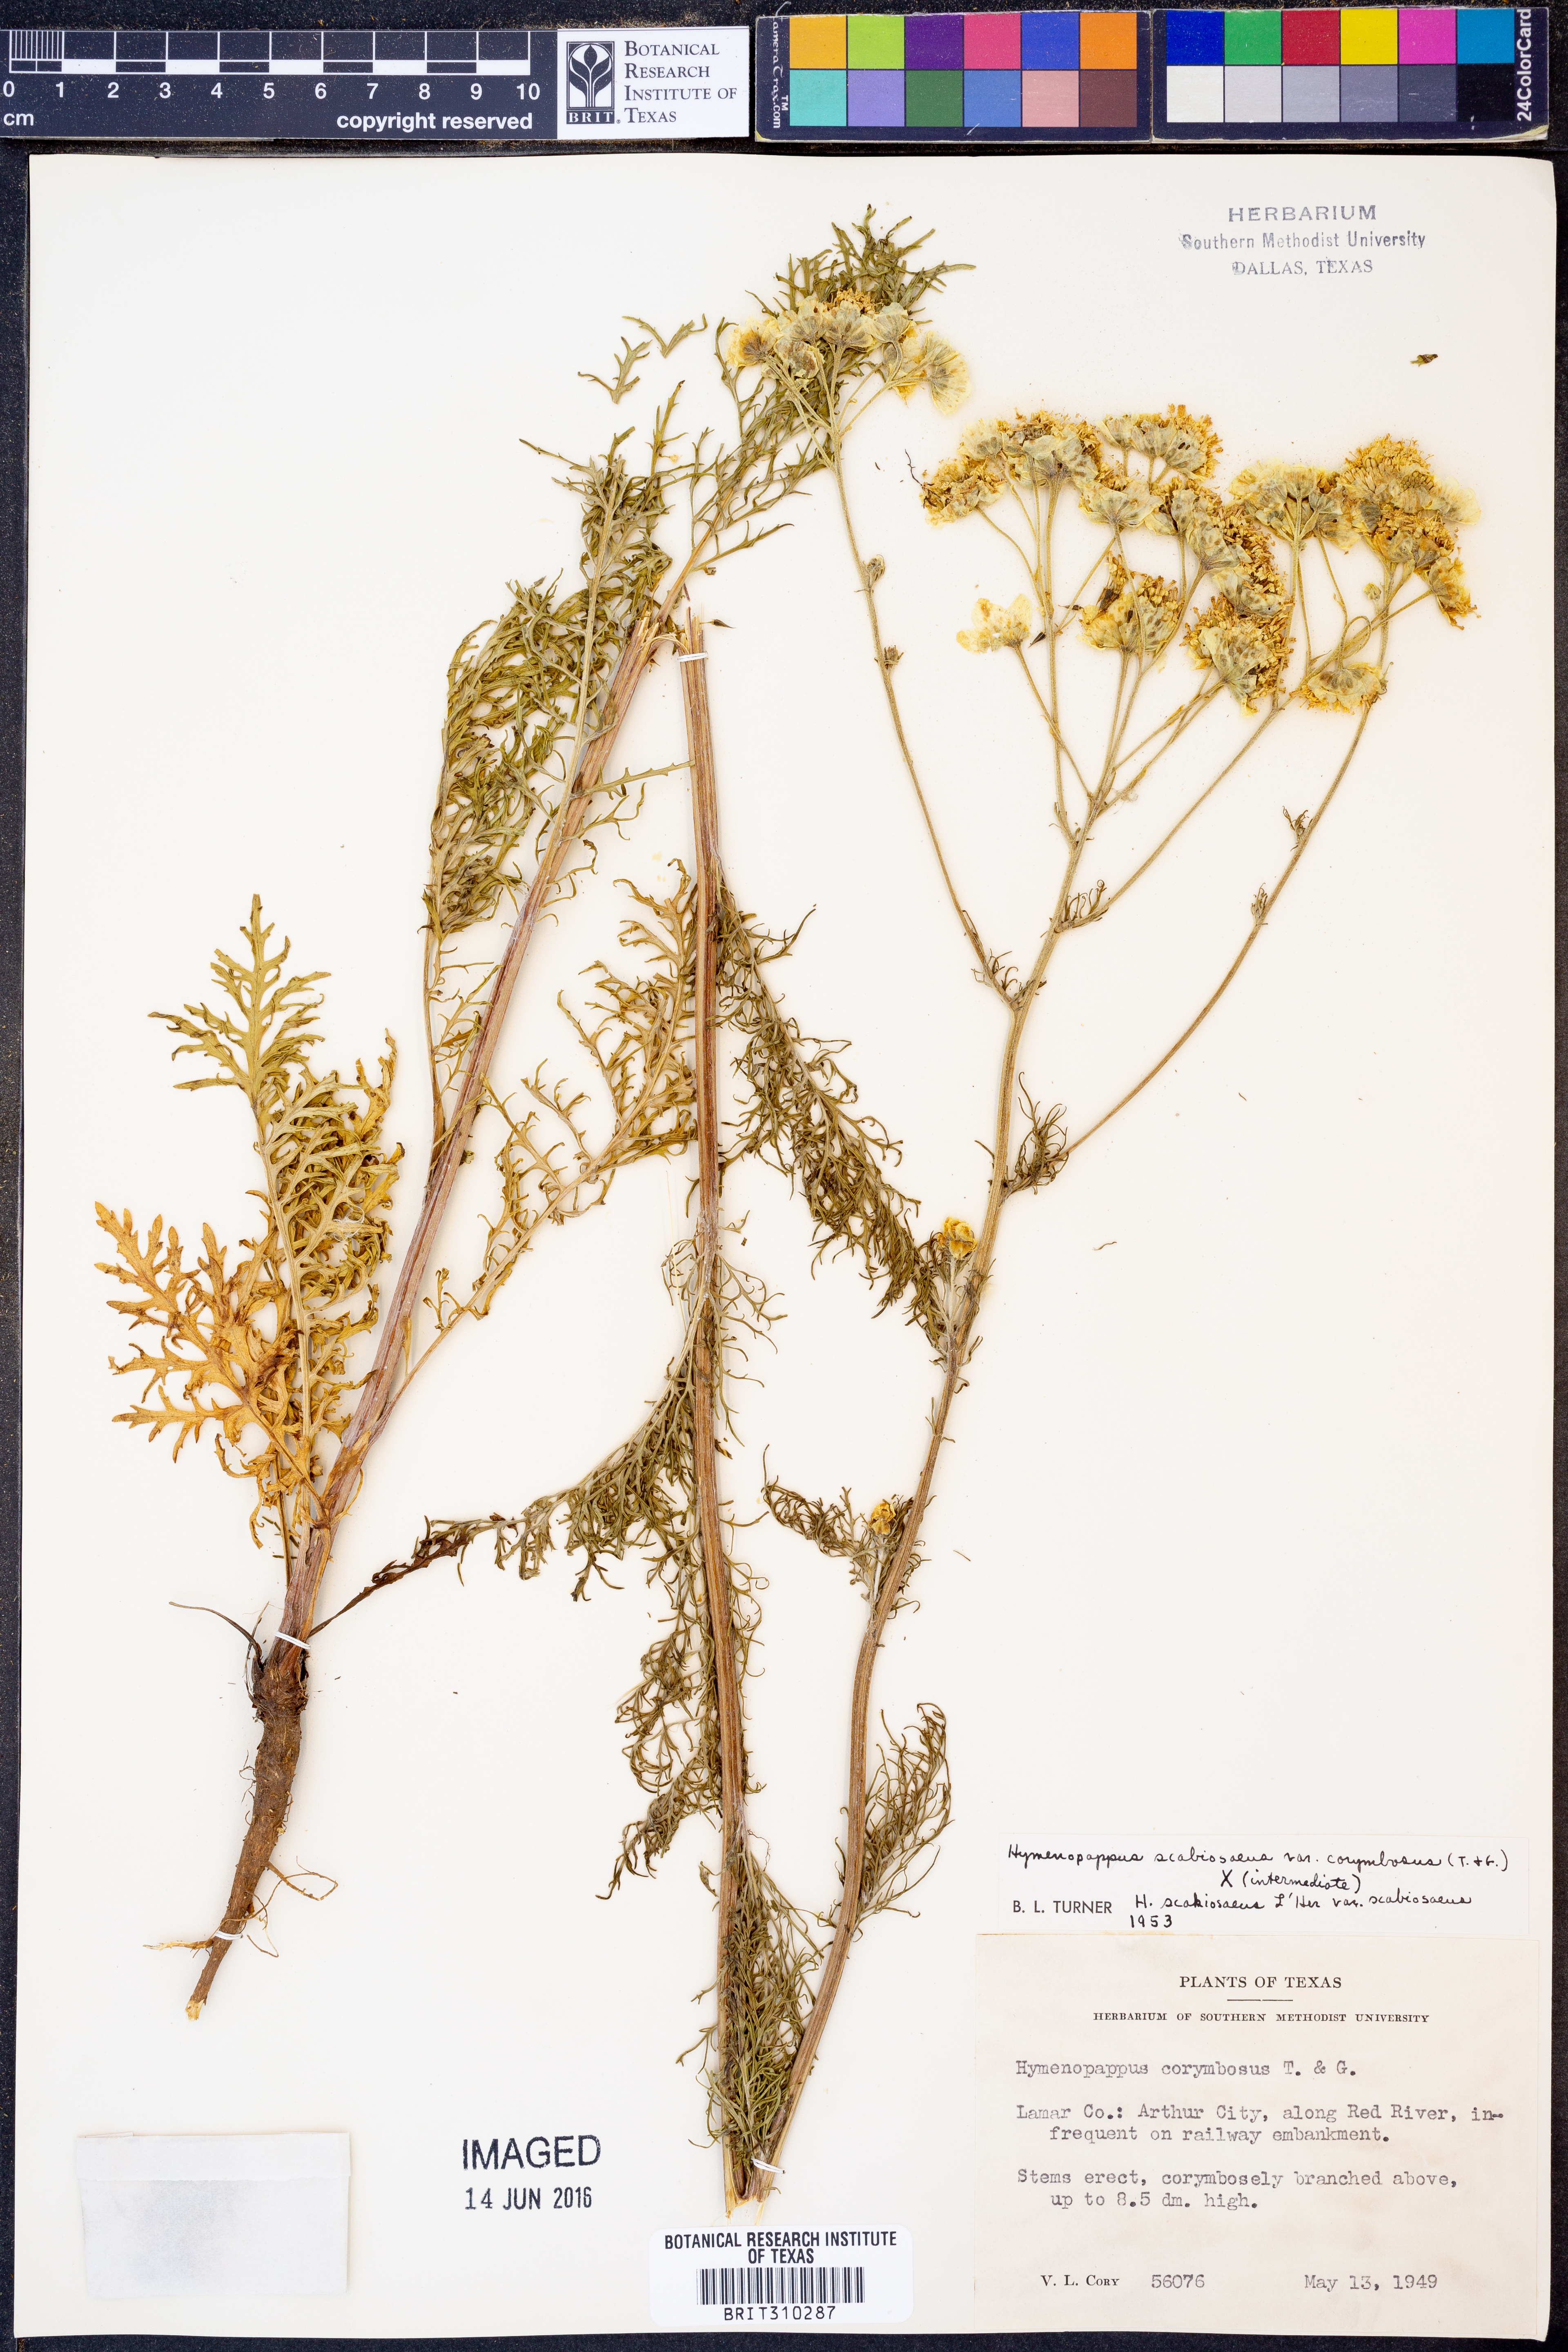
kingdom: Plantae
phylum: Tracheophyta
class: Magnoliopsida
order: Asterales
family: Asteraceae
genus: Hymenopappus
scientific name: Hymenopappus scabiosaeus
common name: Carolina woollywhite
